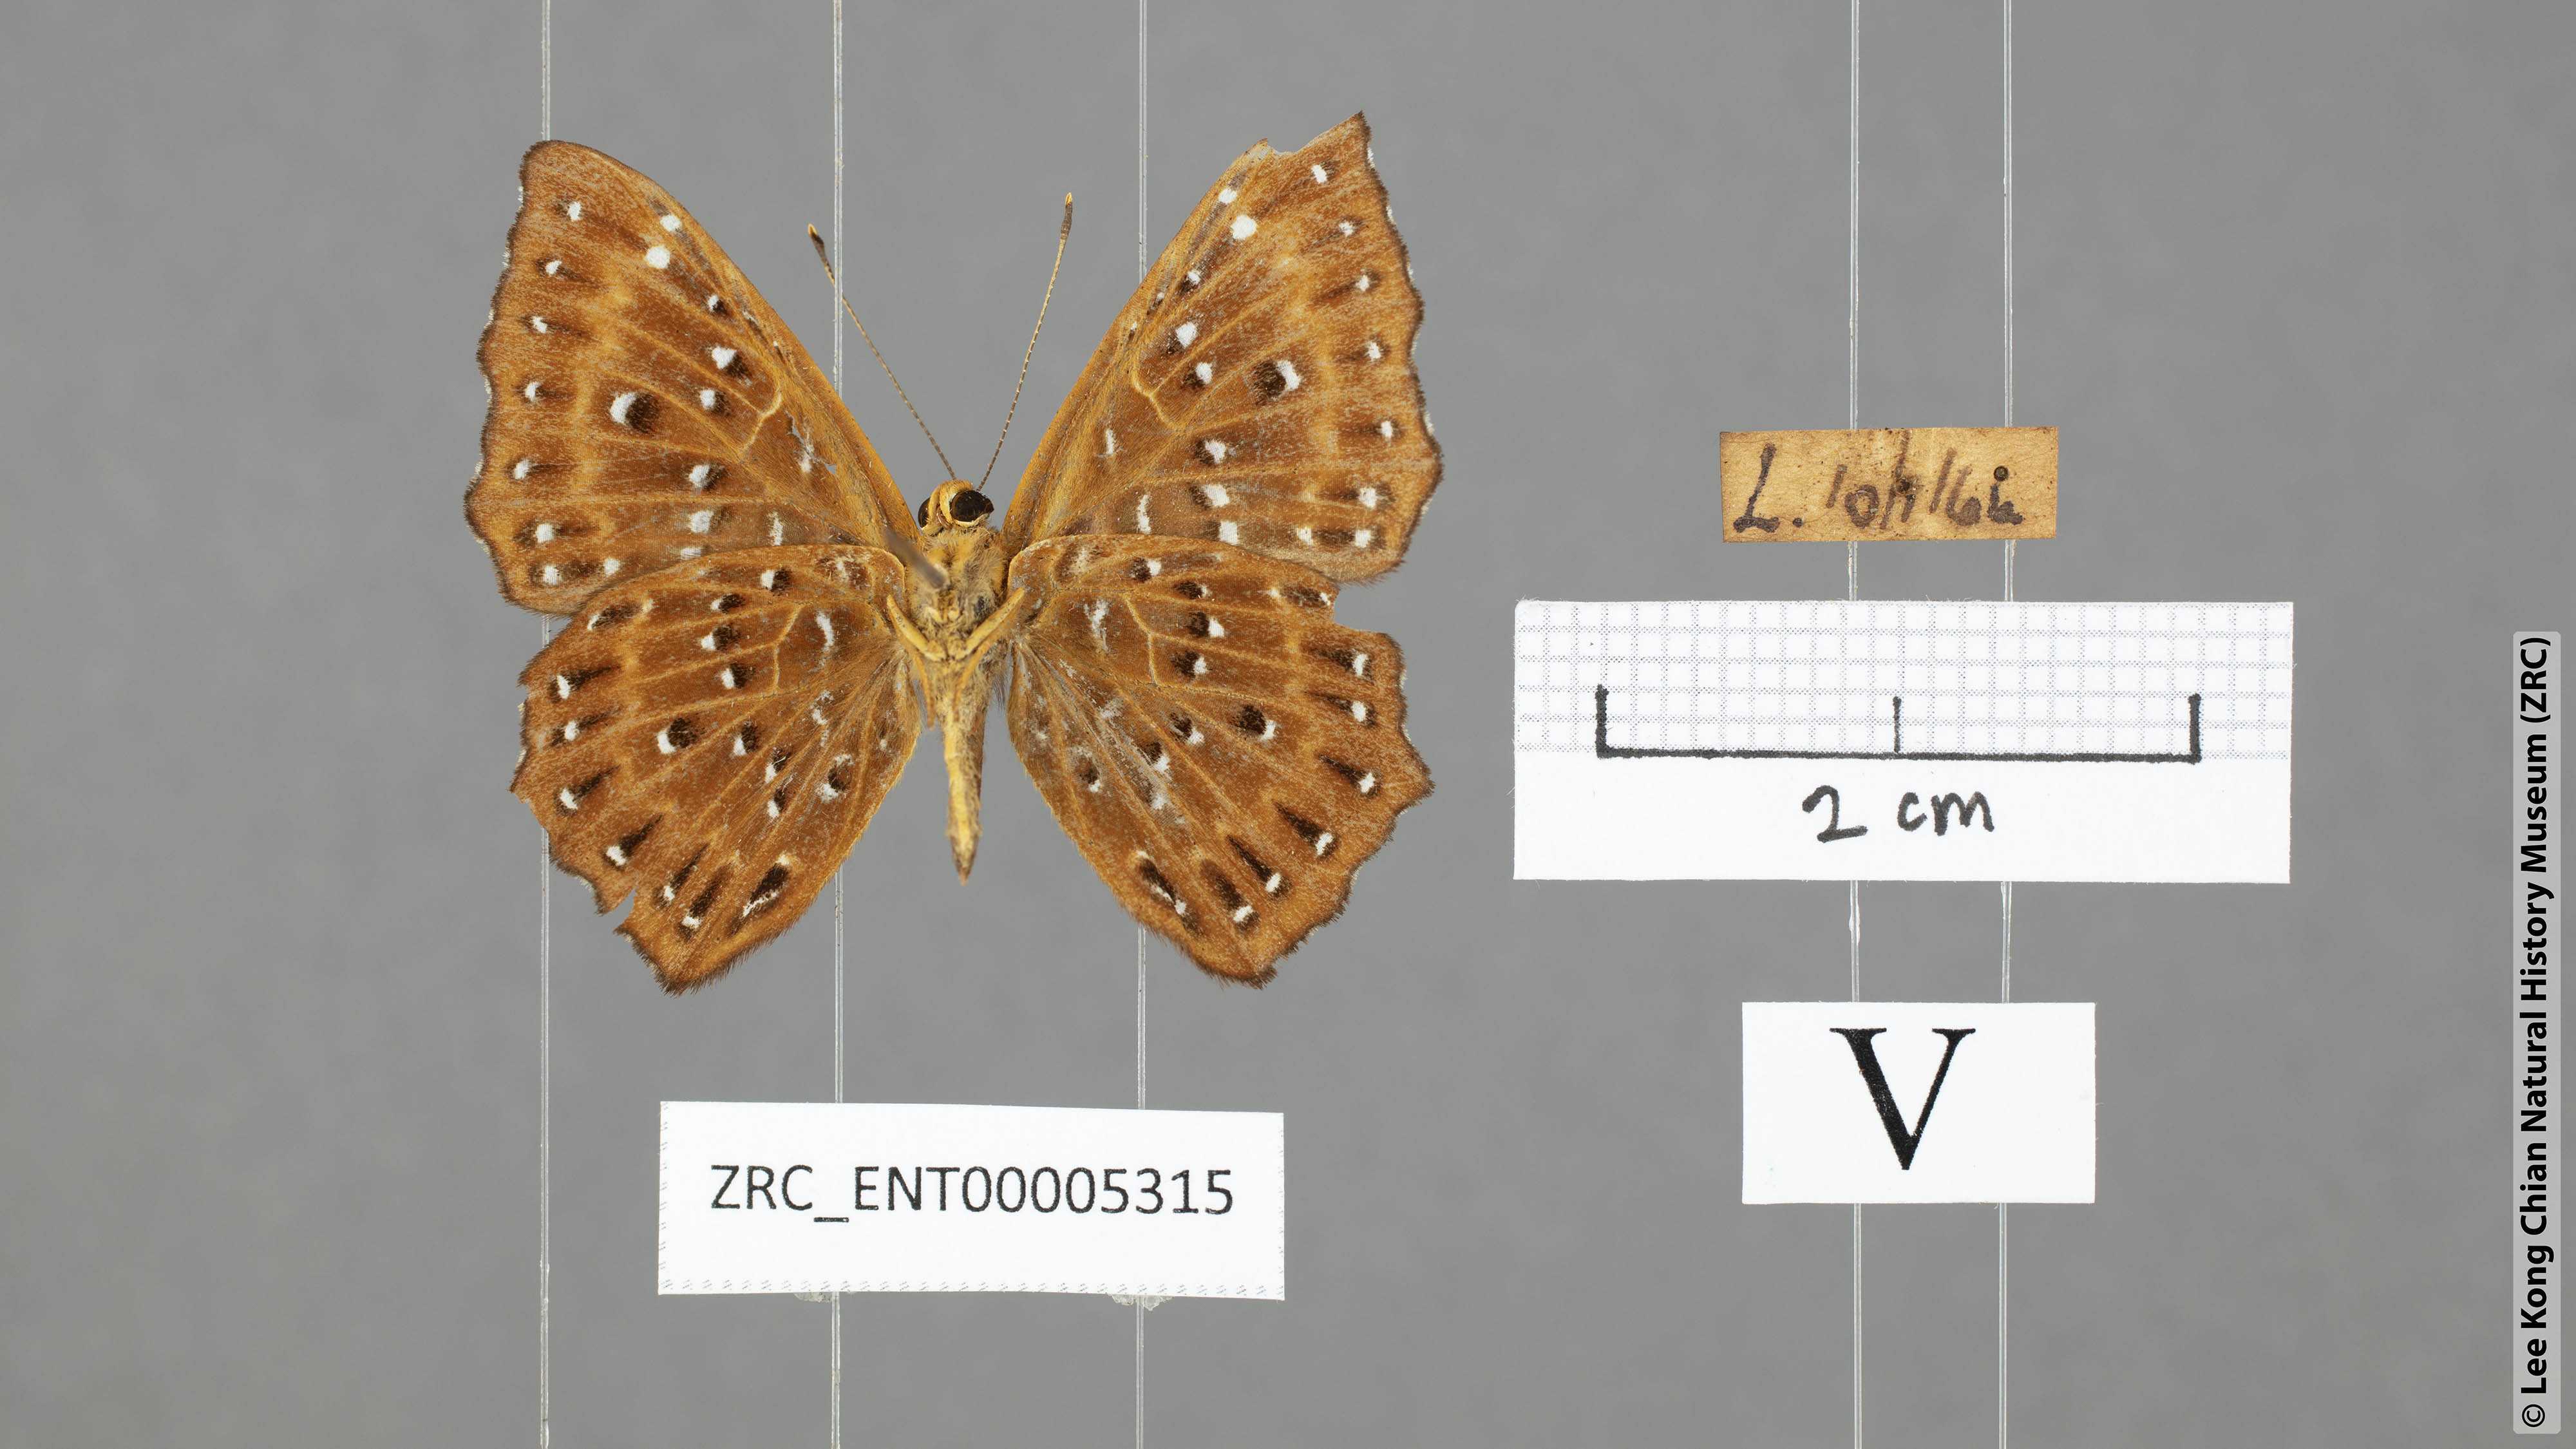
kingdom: Animalia
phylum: Arthropoda
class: Insecta
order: Lepidoptera
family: Riodinidae
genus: Zemeros
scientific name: Zemeros flegyas
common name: Punchinello
